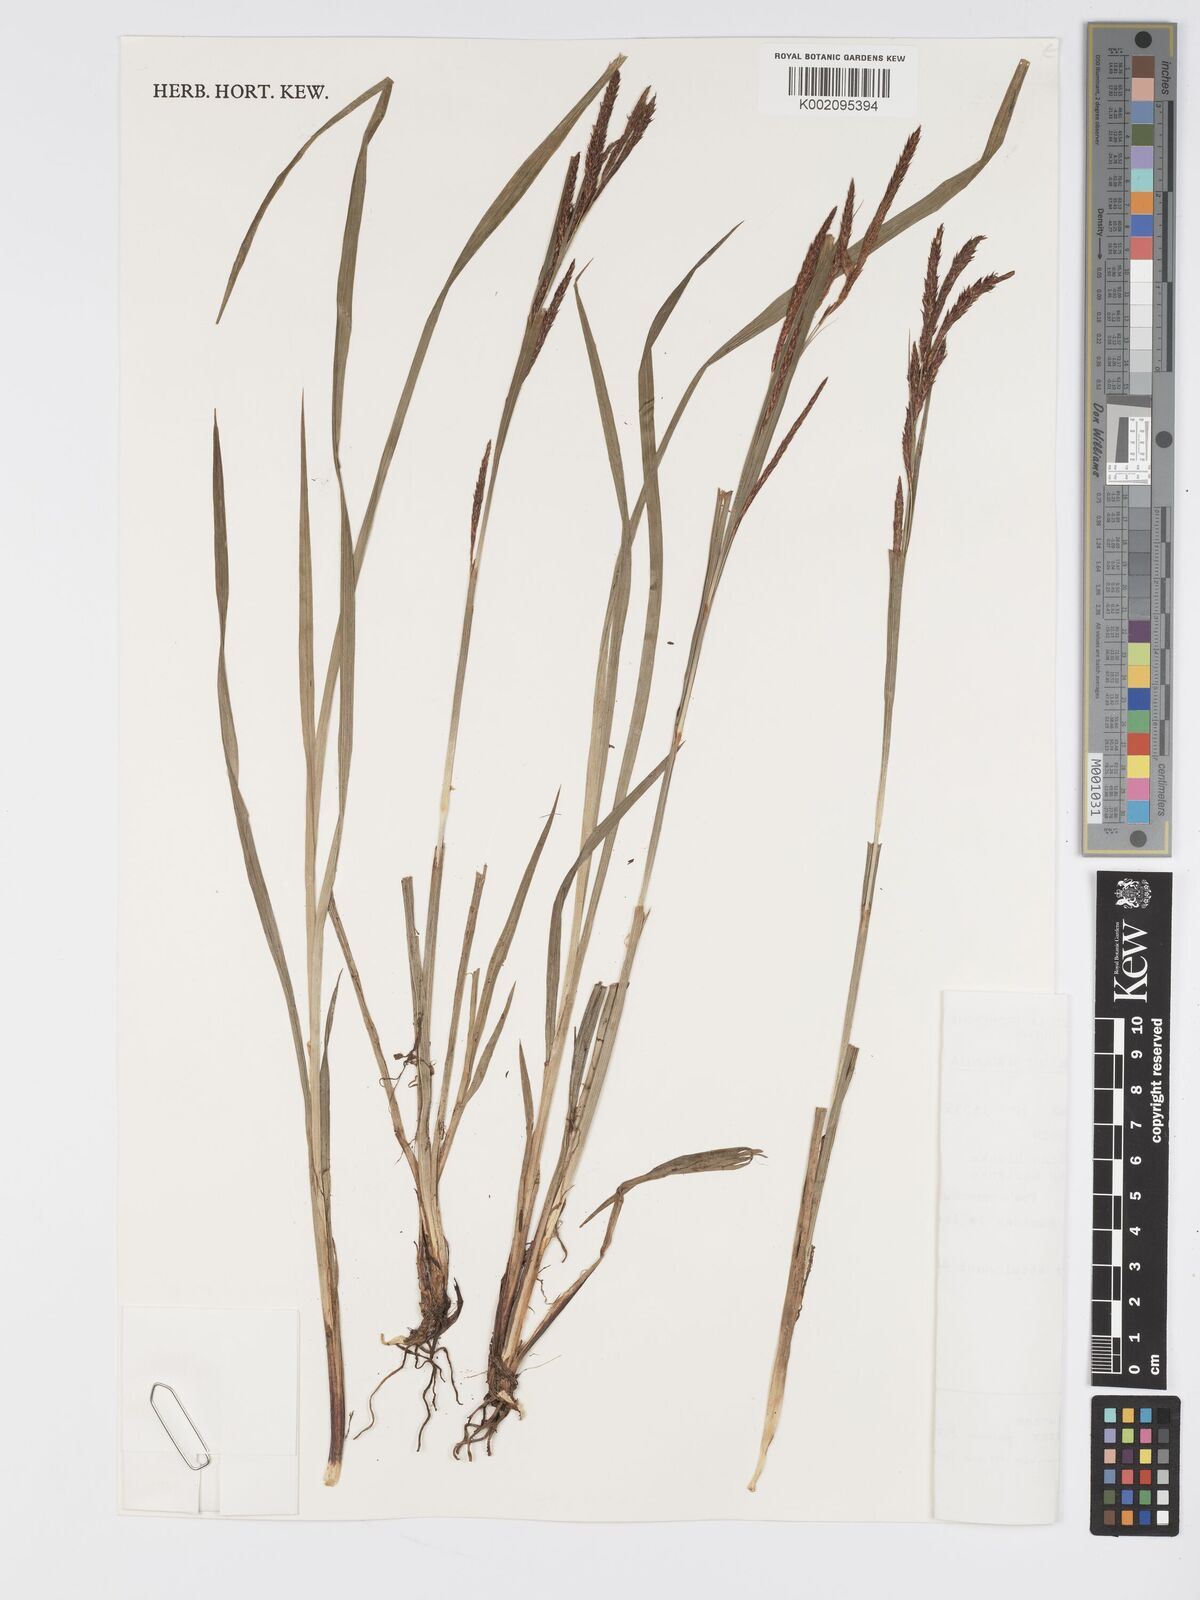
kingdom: Plantae
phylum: Tracheophyta
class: Liliopsida
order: Poales
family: Cyperaceae
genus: Carex
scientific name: Carex simensis
